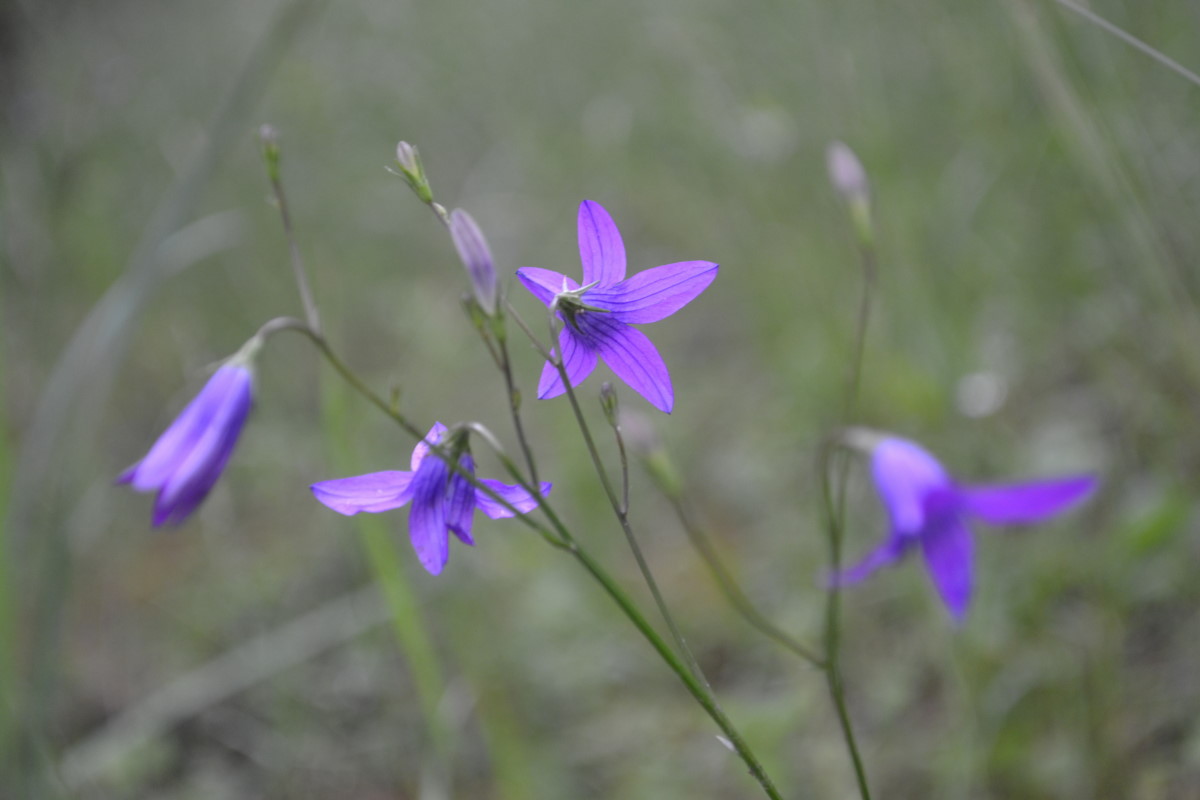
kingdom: Plantae
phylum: Tracheophyta
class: Magnoliopsida
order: Asterales
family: Campanulaceae
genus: Campanula
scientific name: Campanula patula
